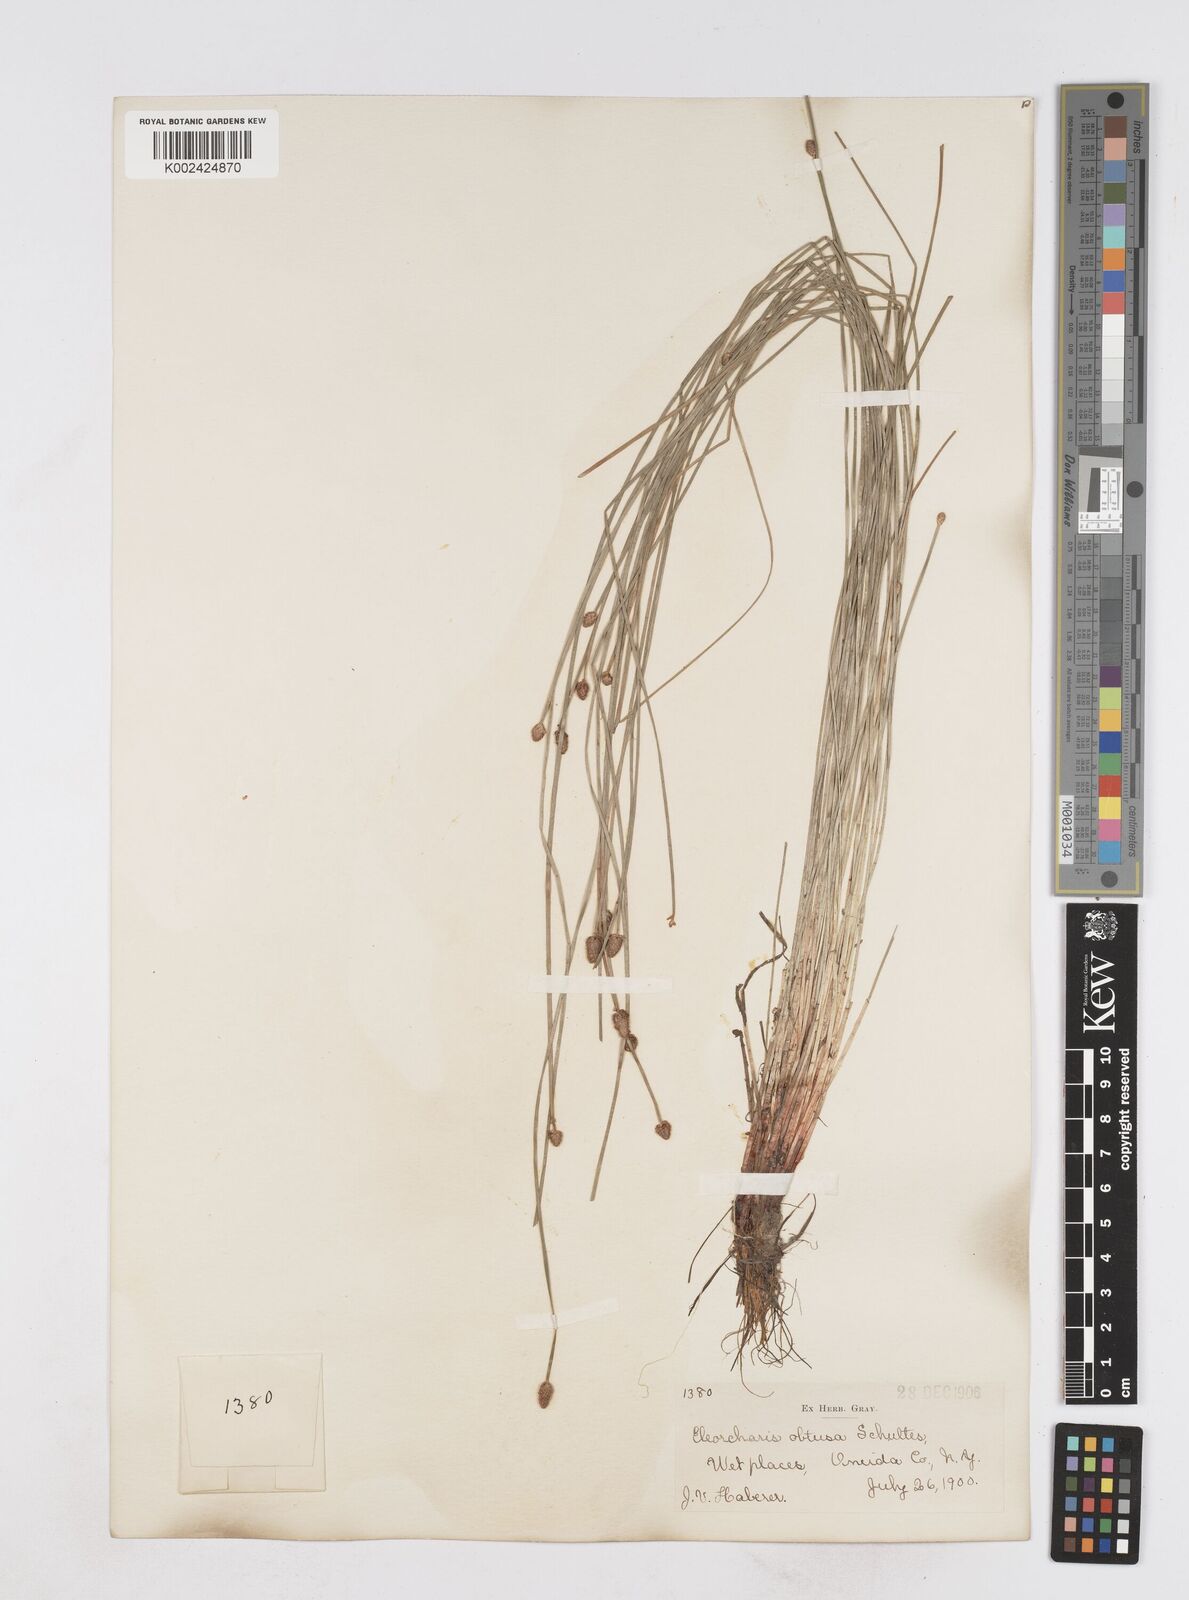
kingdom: Plantae
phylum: Tracheophyta
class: Liliopsida
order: Poales
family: Cyperaceae
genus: Eleocharis
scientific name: Eleocharis obtusa
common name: Blunt spikerush
